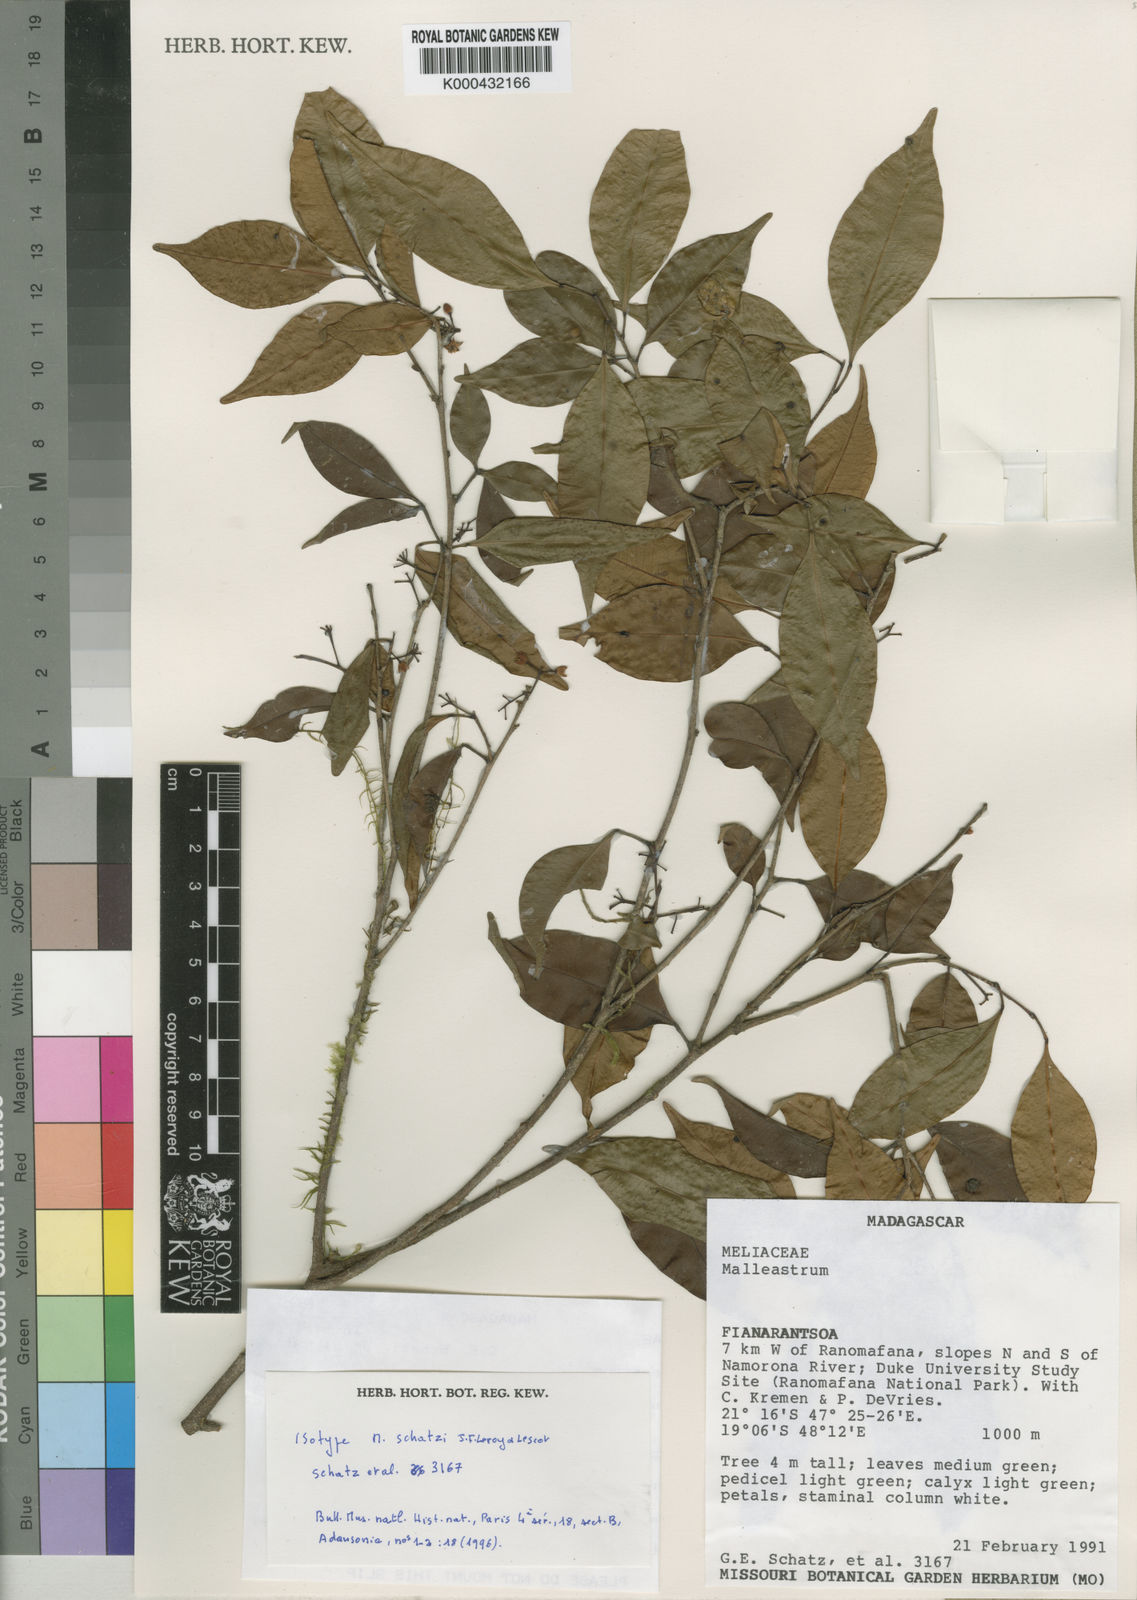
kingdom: Plantae
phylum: Tracheophyta
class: Magnoliopsida
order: Sapindales
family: Meliaceae
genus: Malleastrum
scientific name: Malleastrum schatzii
